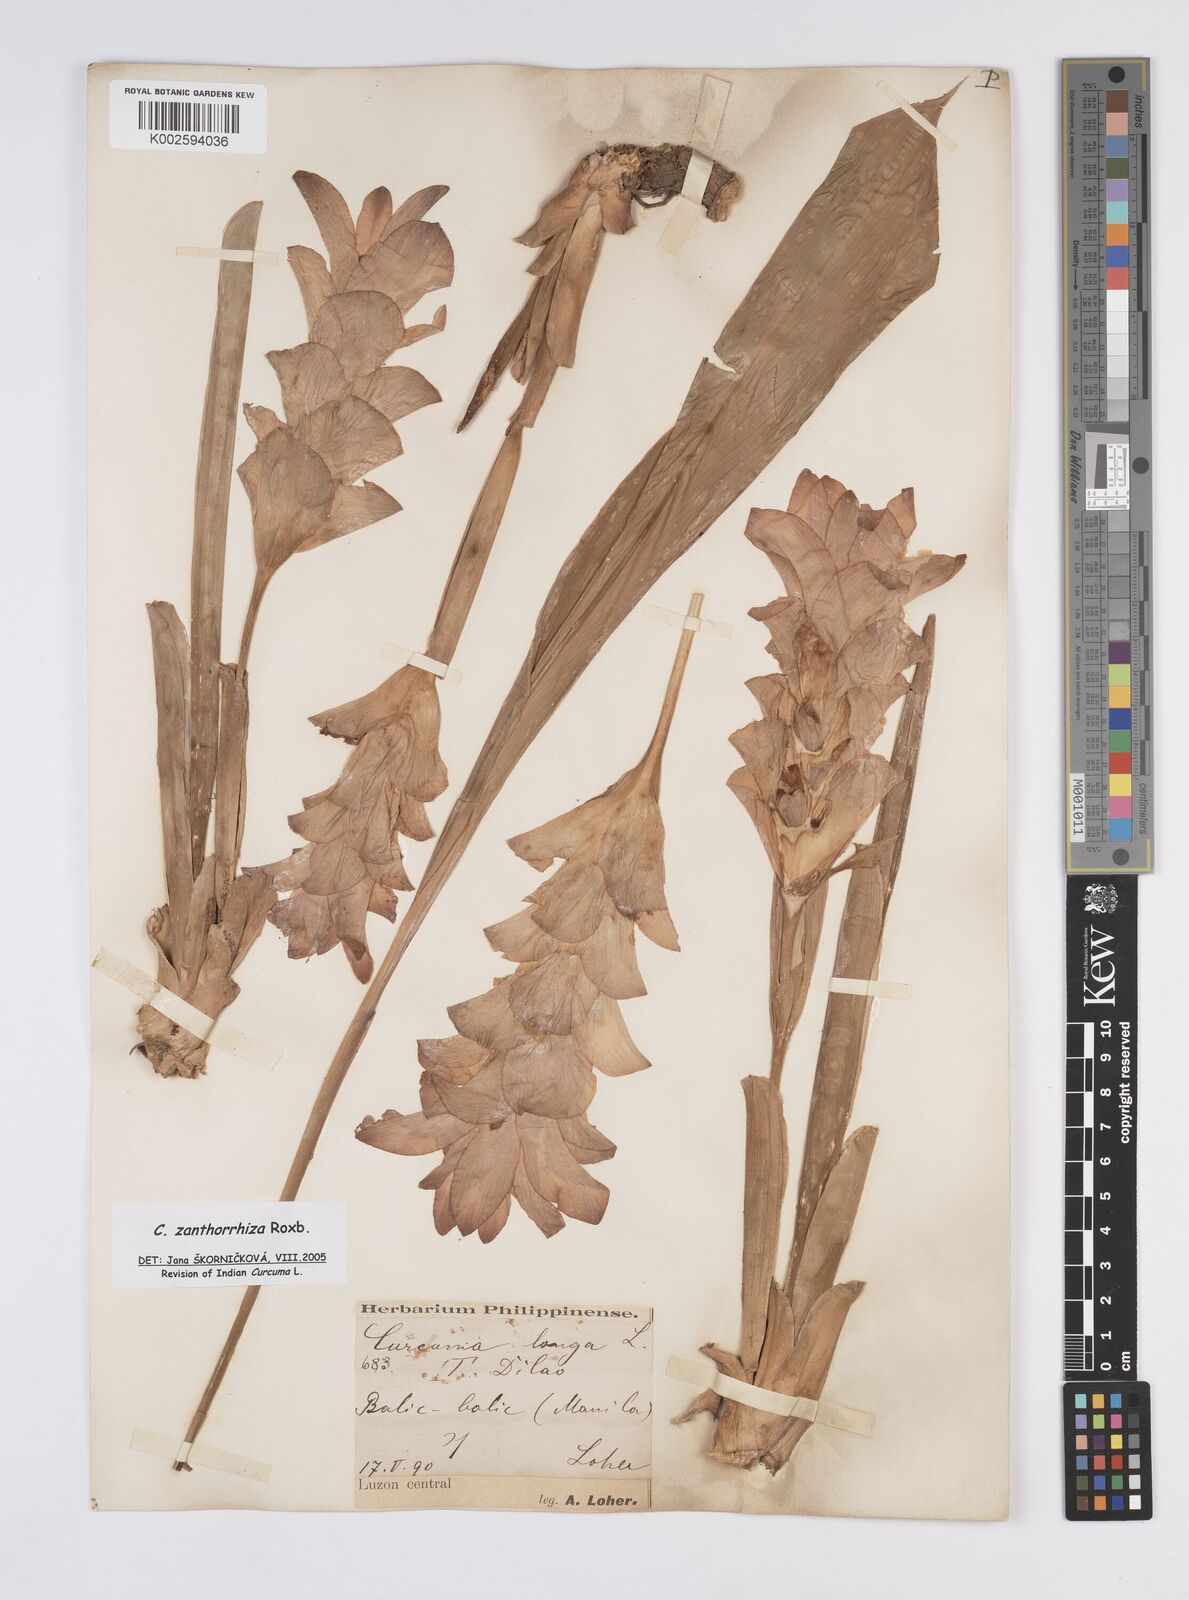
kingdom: Plantae
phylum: Tracheophyta
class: Liliopsida
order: Zingiberales
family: Zingiberaceae
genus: Curcuma
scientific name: Curcuma zanthorrhiza
